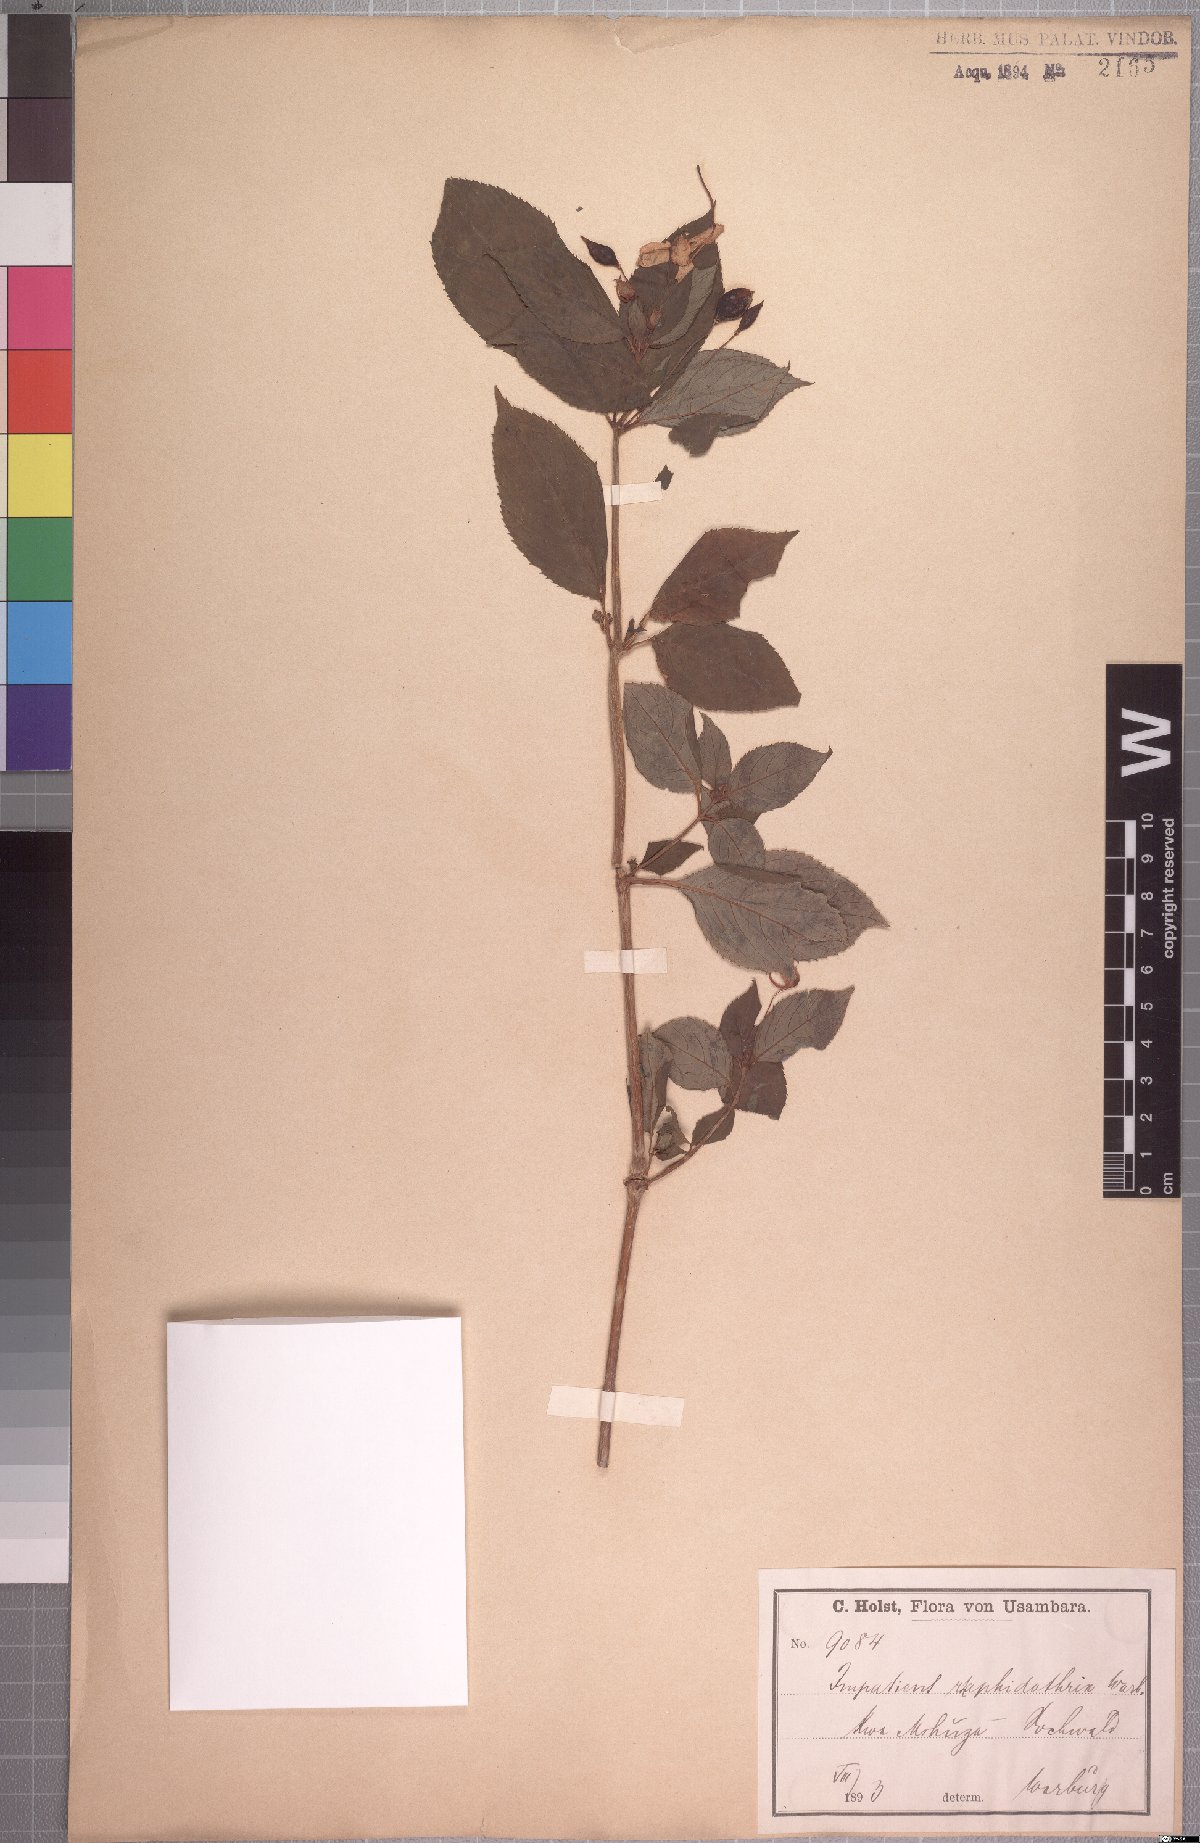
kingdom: Plantae
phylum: Tracheophyta
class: Magnoliopsida
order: Ericales
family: Balsaminaceae
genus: Impatiens
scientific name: Impatiens raphidothrix
